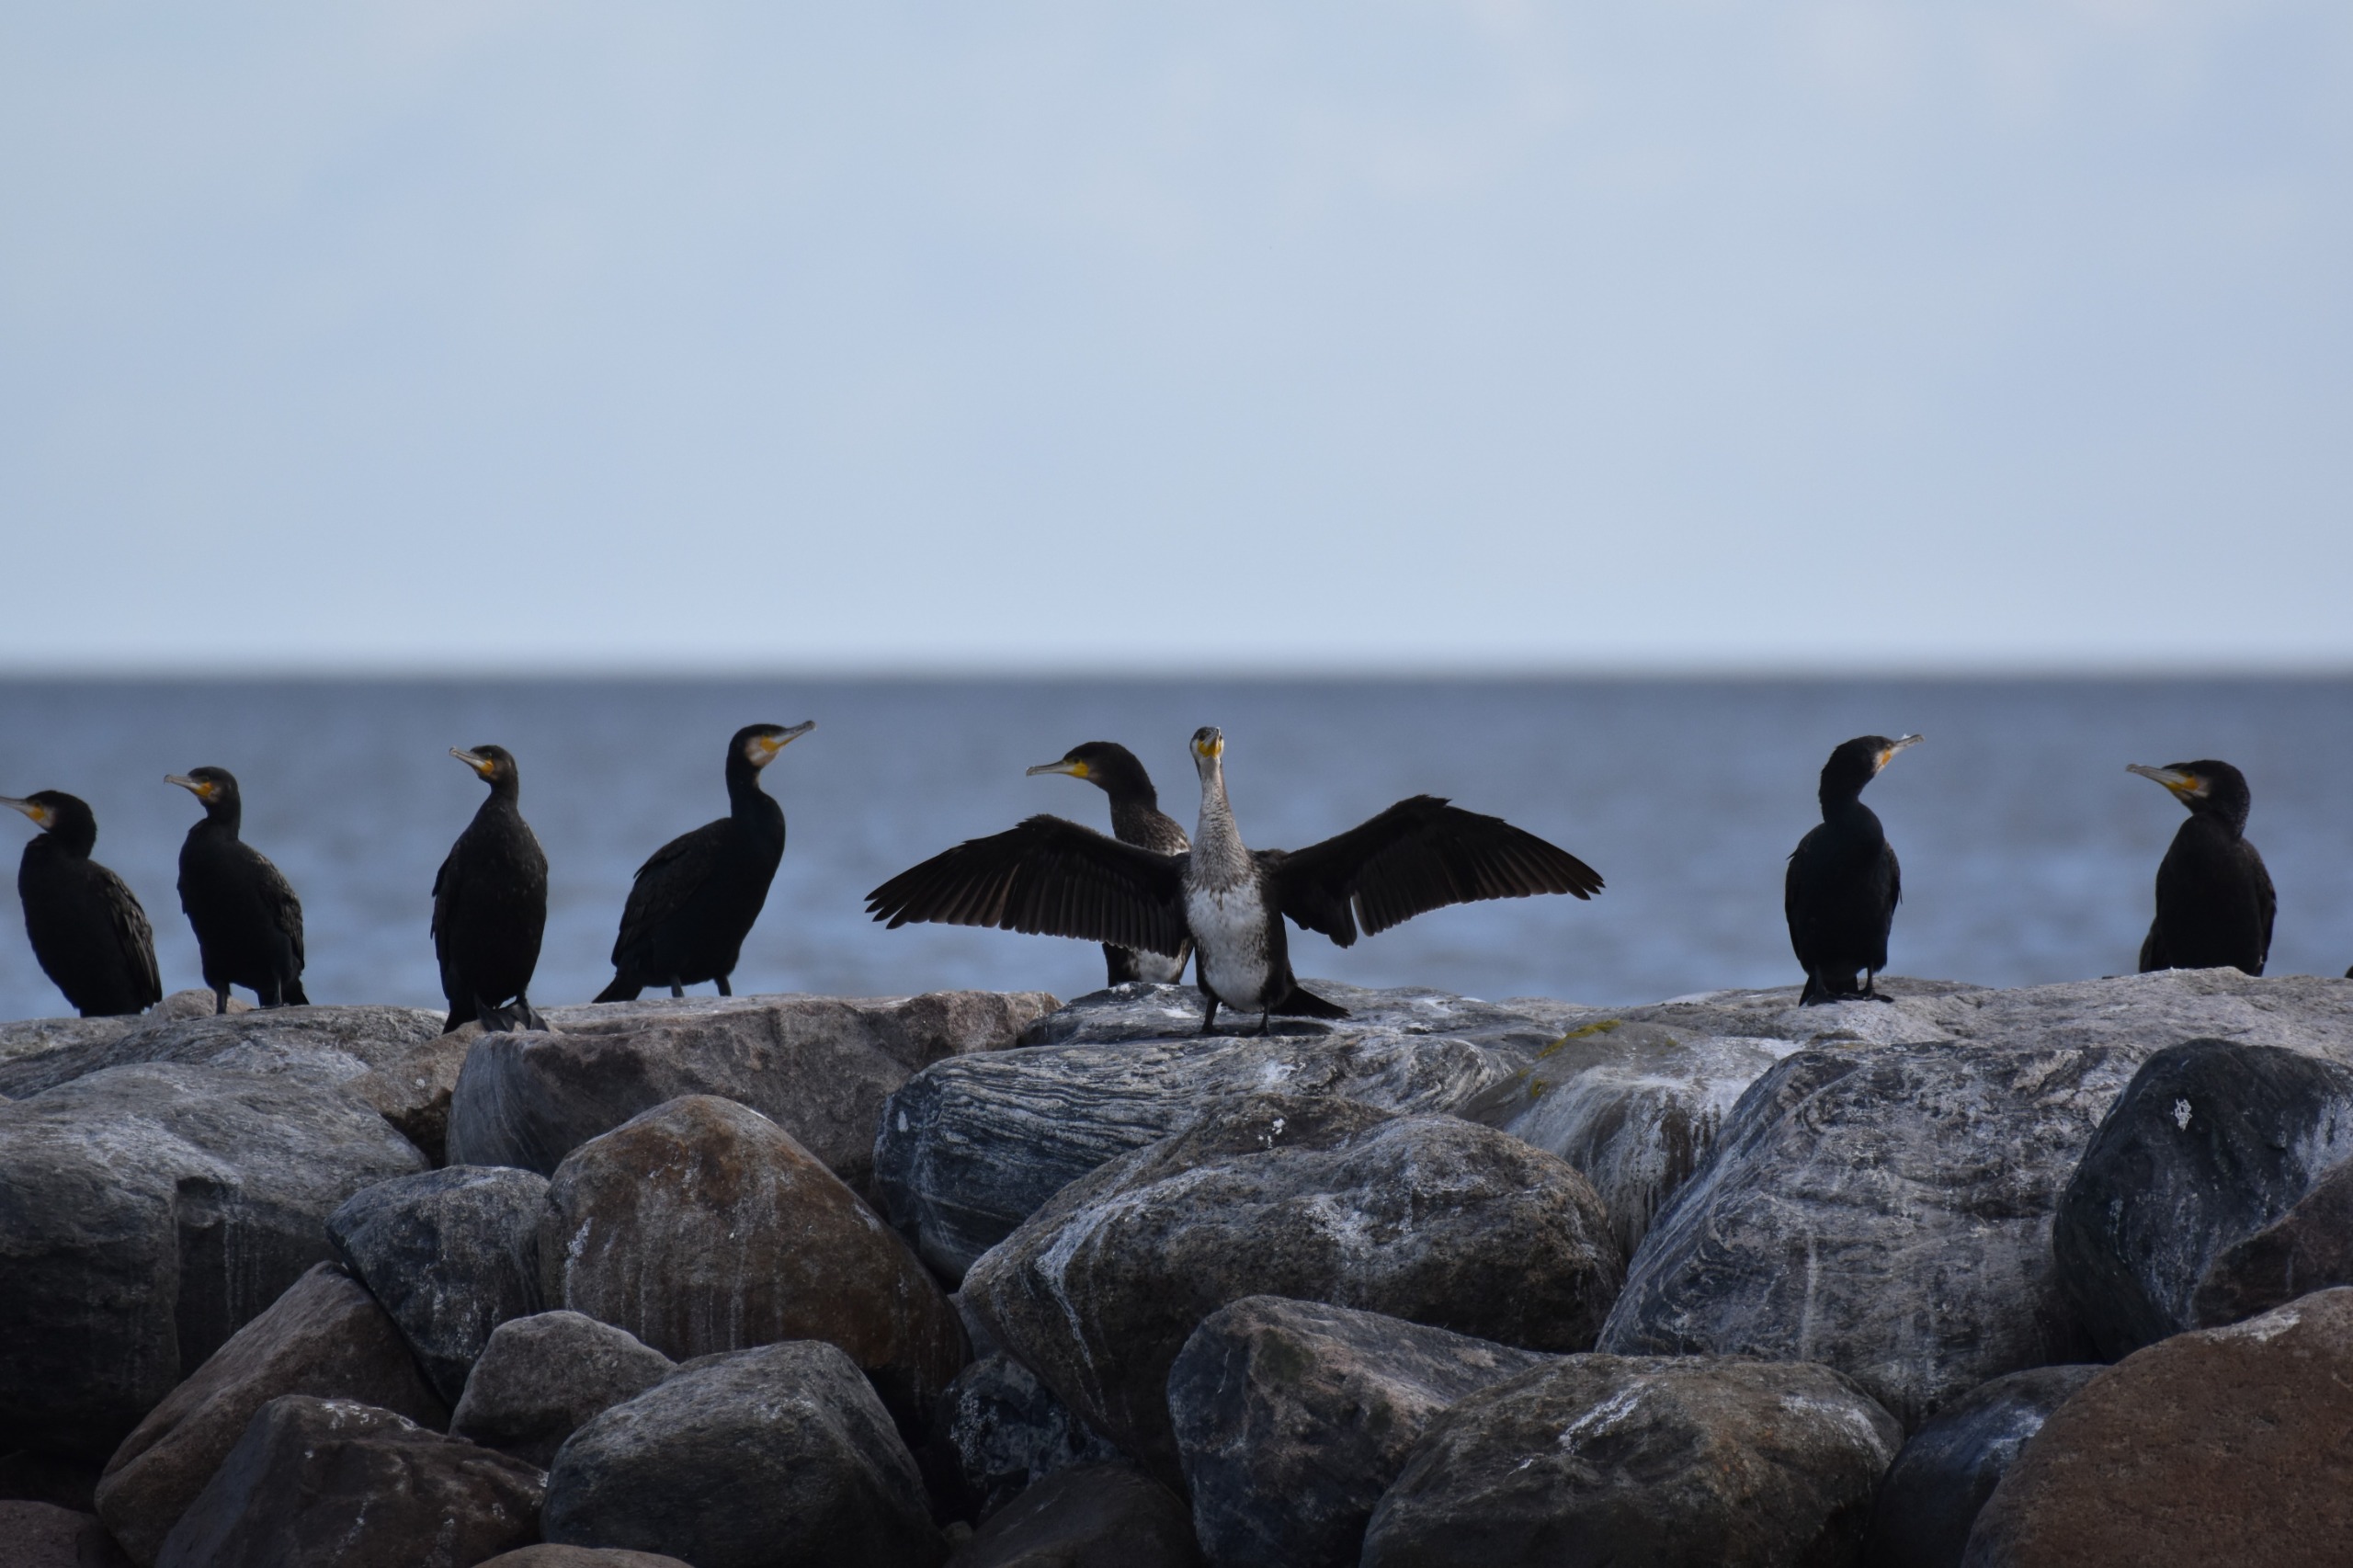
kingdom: Animalia
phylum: Chordata
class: Aves
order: Suliformes
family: Phalacrocoracidae
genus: Phalacrocorax
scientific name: Phalacrocorax carbo
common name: Skarv
